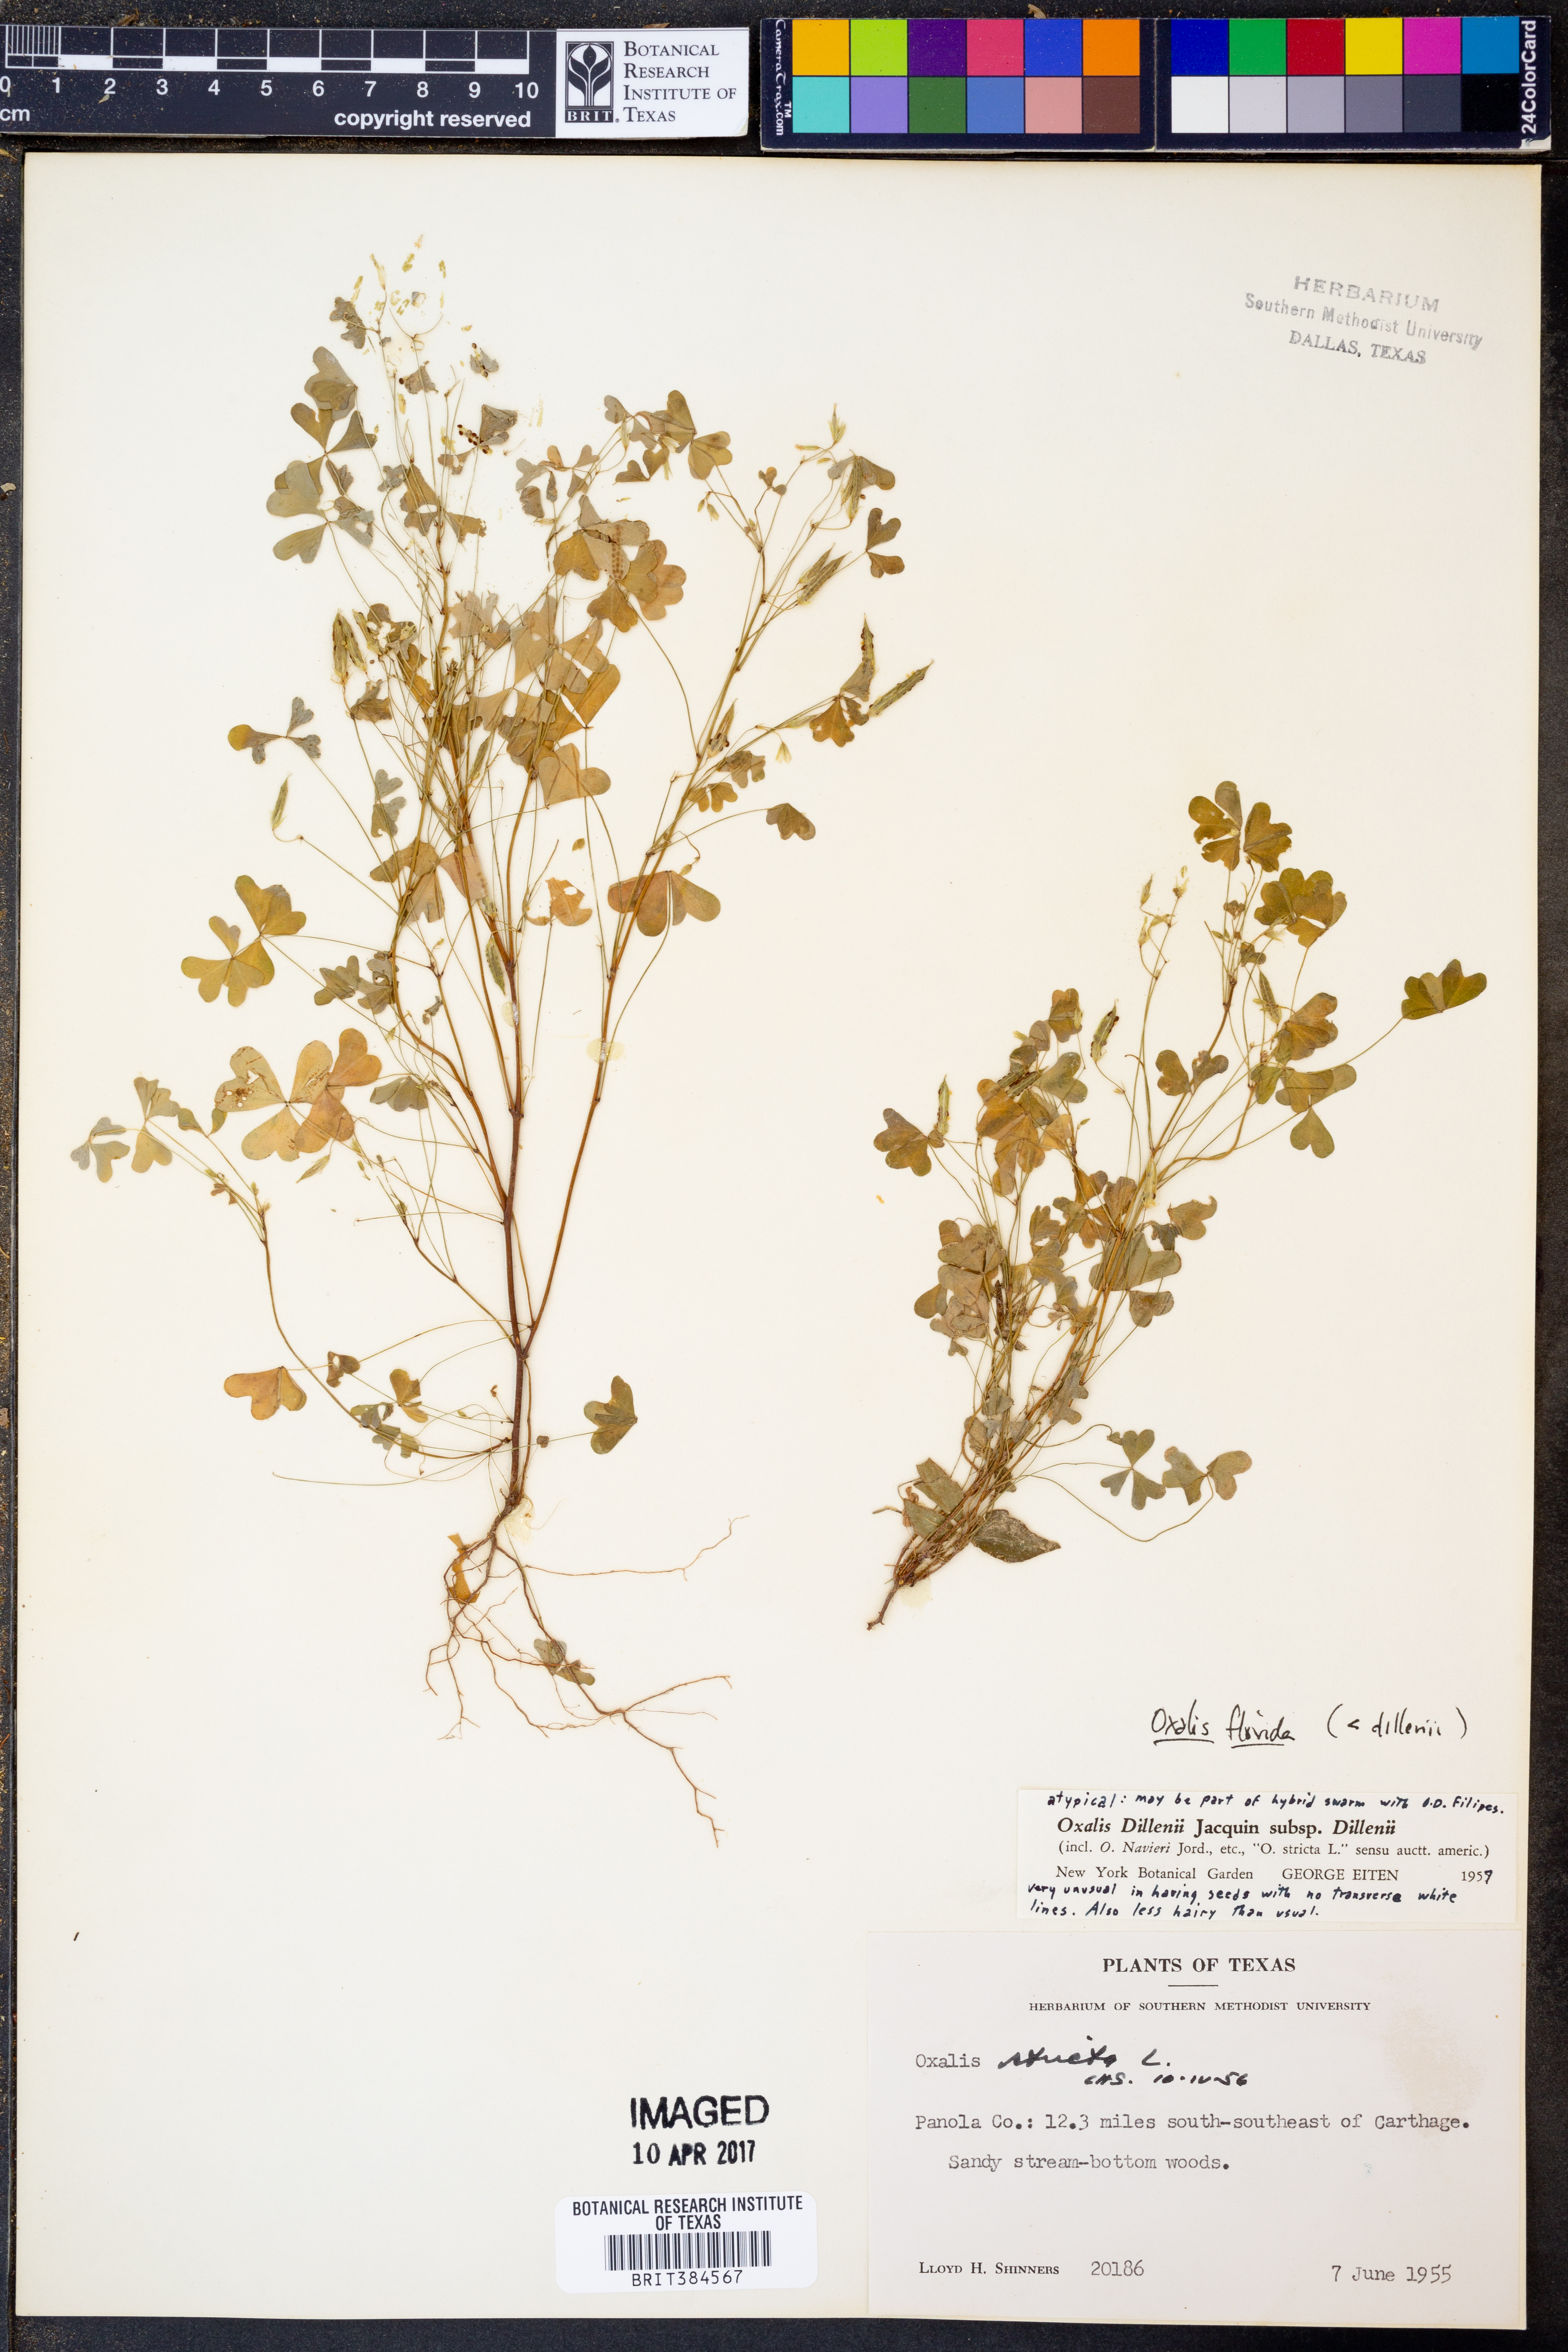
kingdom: Plantae
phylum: Tracheophyta
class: Magnoliopsida
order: Oxalidales
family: Oxalidaceae
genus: Oxalis
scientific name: Oxalis florida
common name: Flowering yellow woodsorrel
